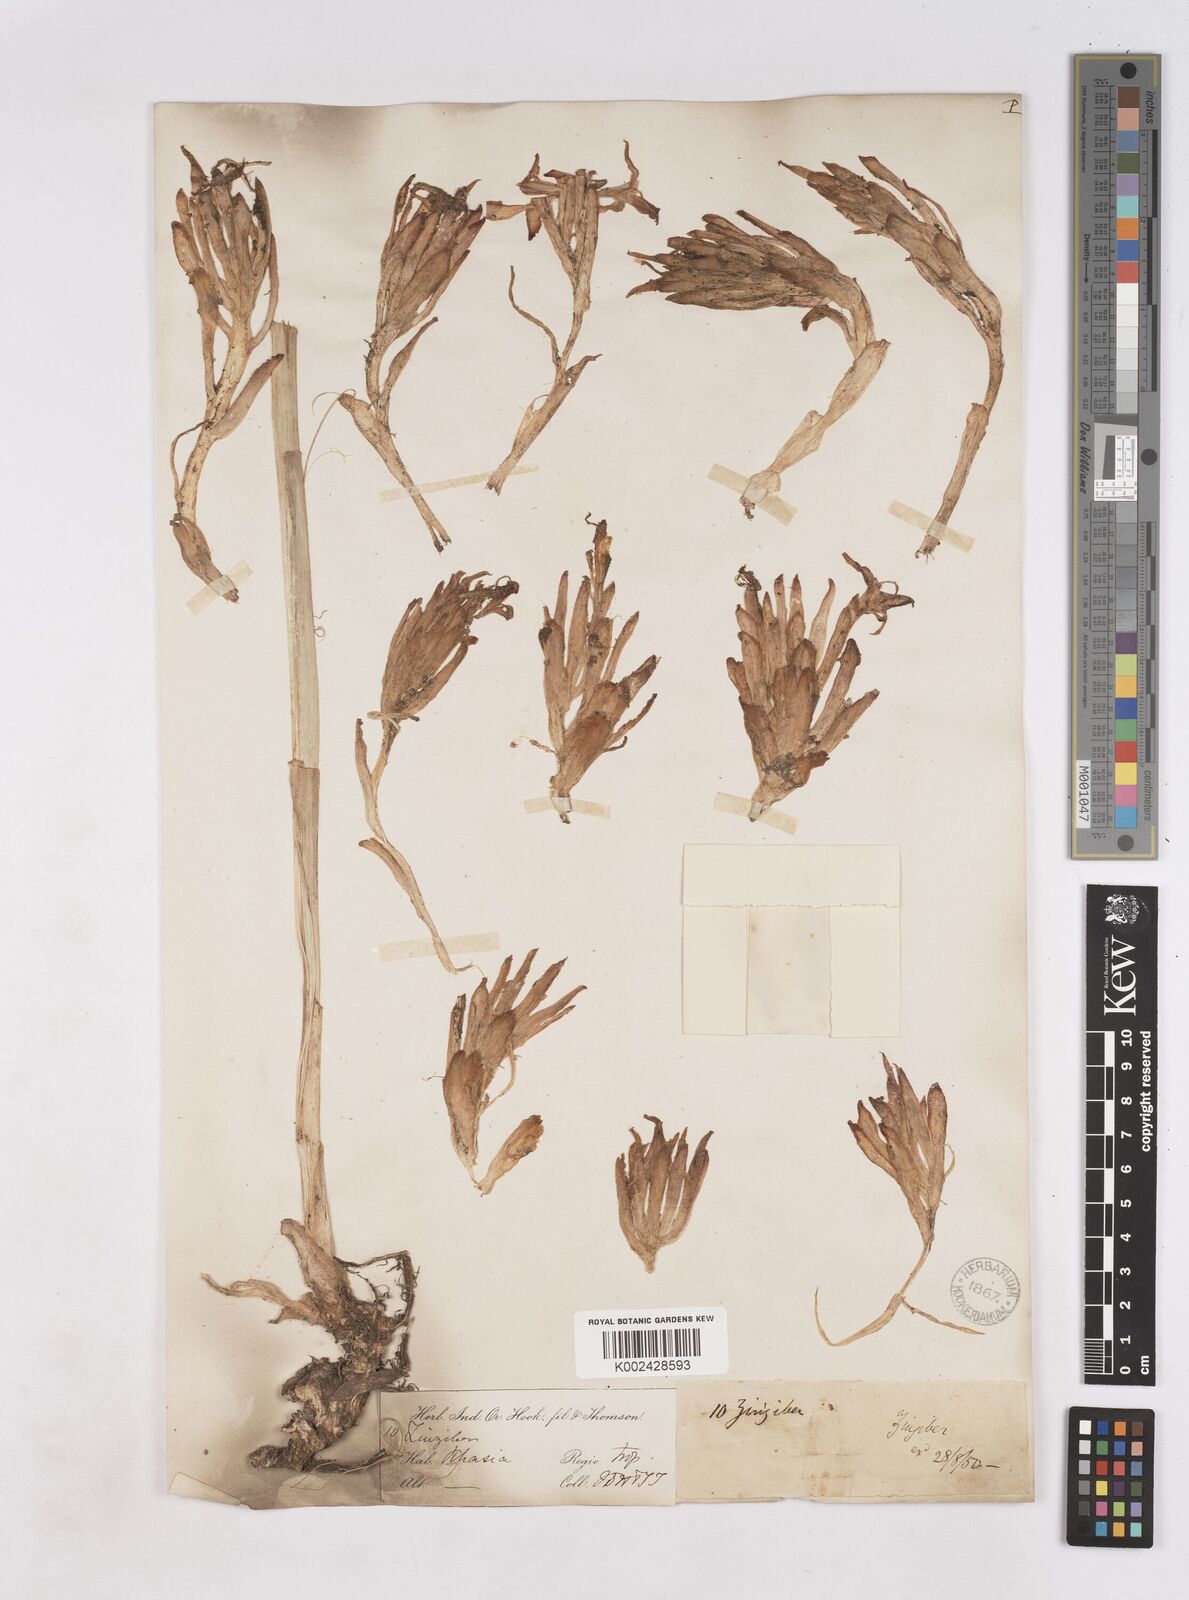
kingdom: Plantae
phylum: Tracheophyta
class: Liliopsida
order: Zingiberales
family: Zingiberaceae
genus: Zingiber
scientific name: Zingiber rubens
